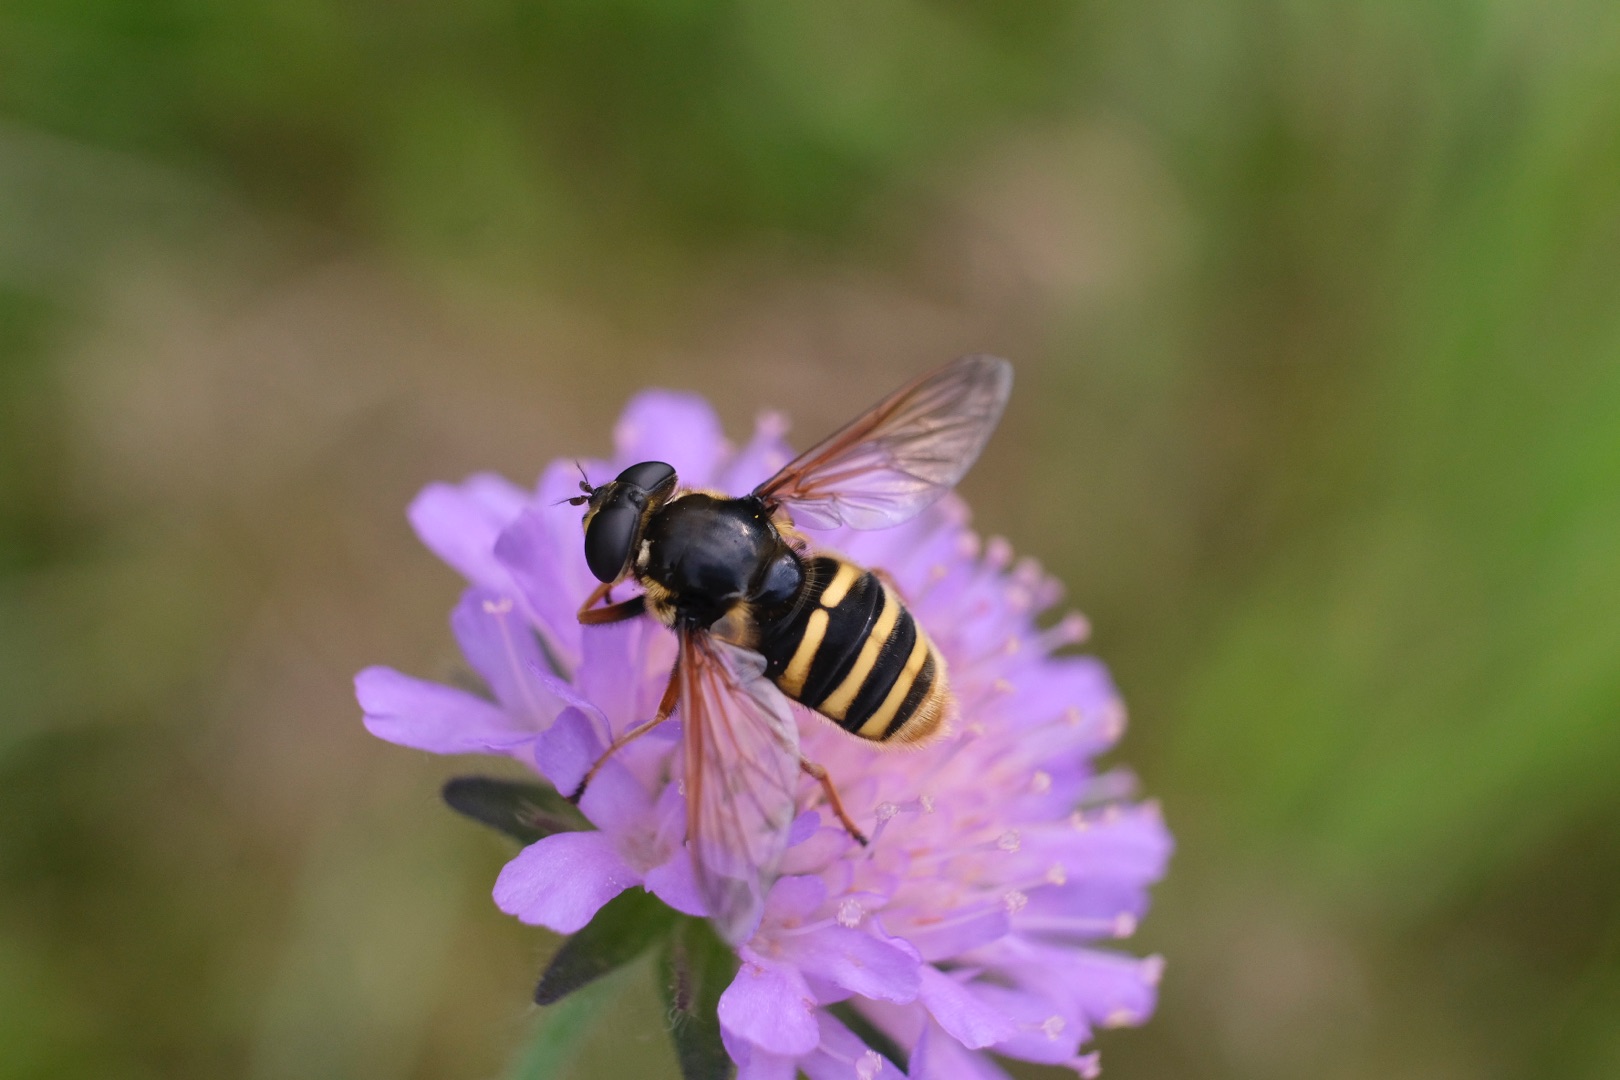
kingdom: Animalia
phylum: Arthropoda
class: Insecta
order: Diptera
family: Syrphidae
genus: Sericomyia
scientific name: Sericomyia silentis
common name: Tørve-silkesvirreflue
